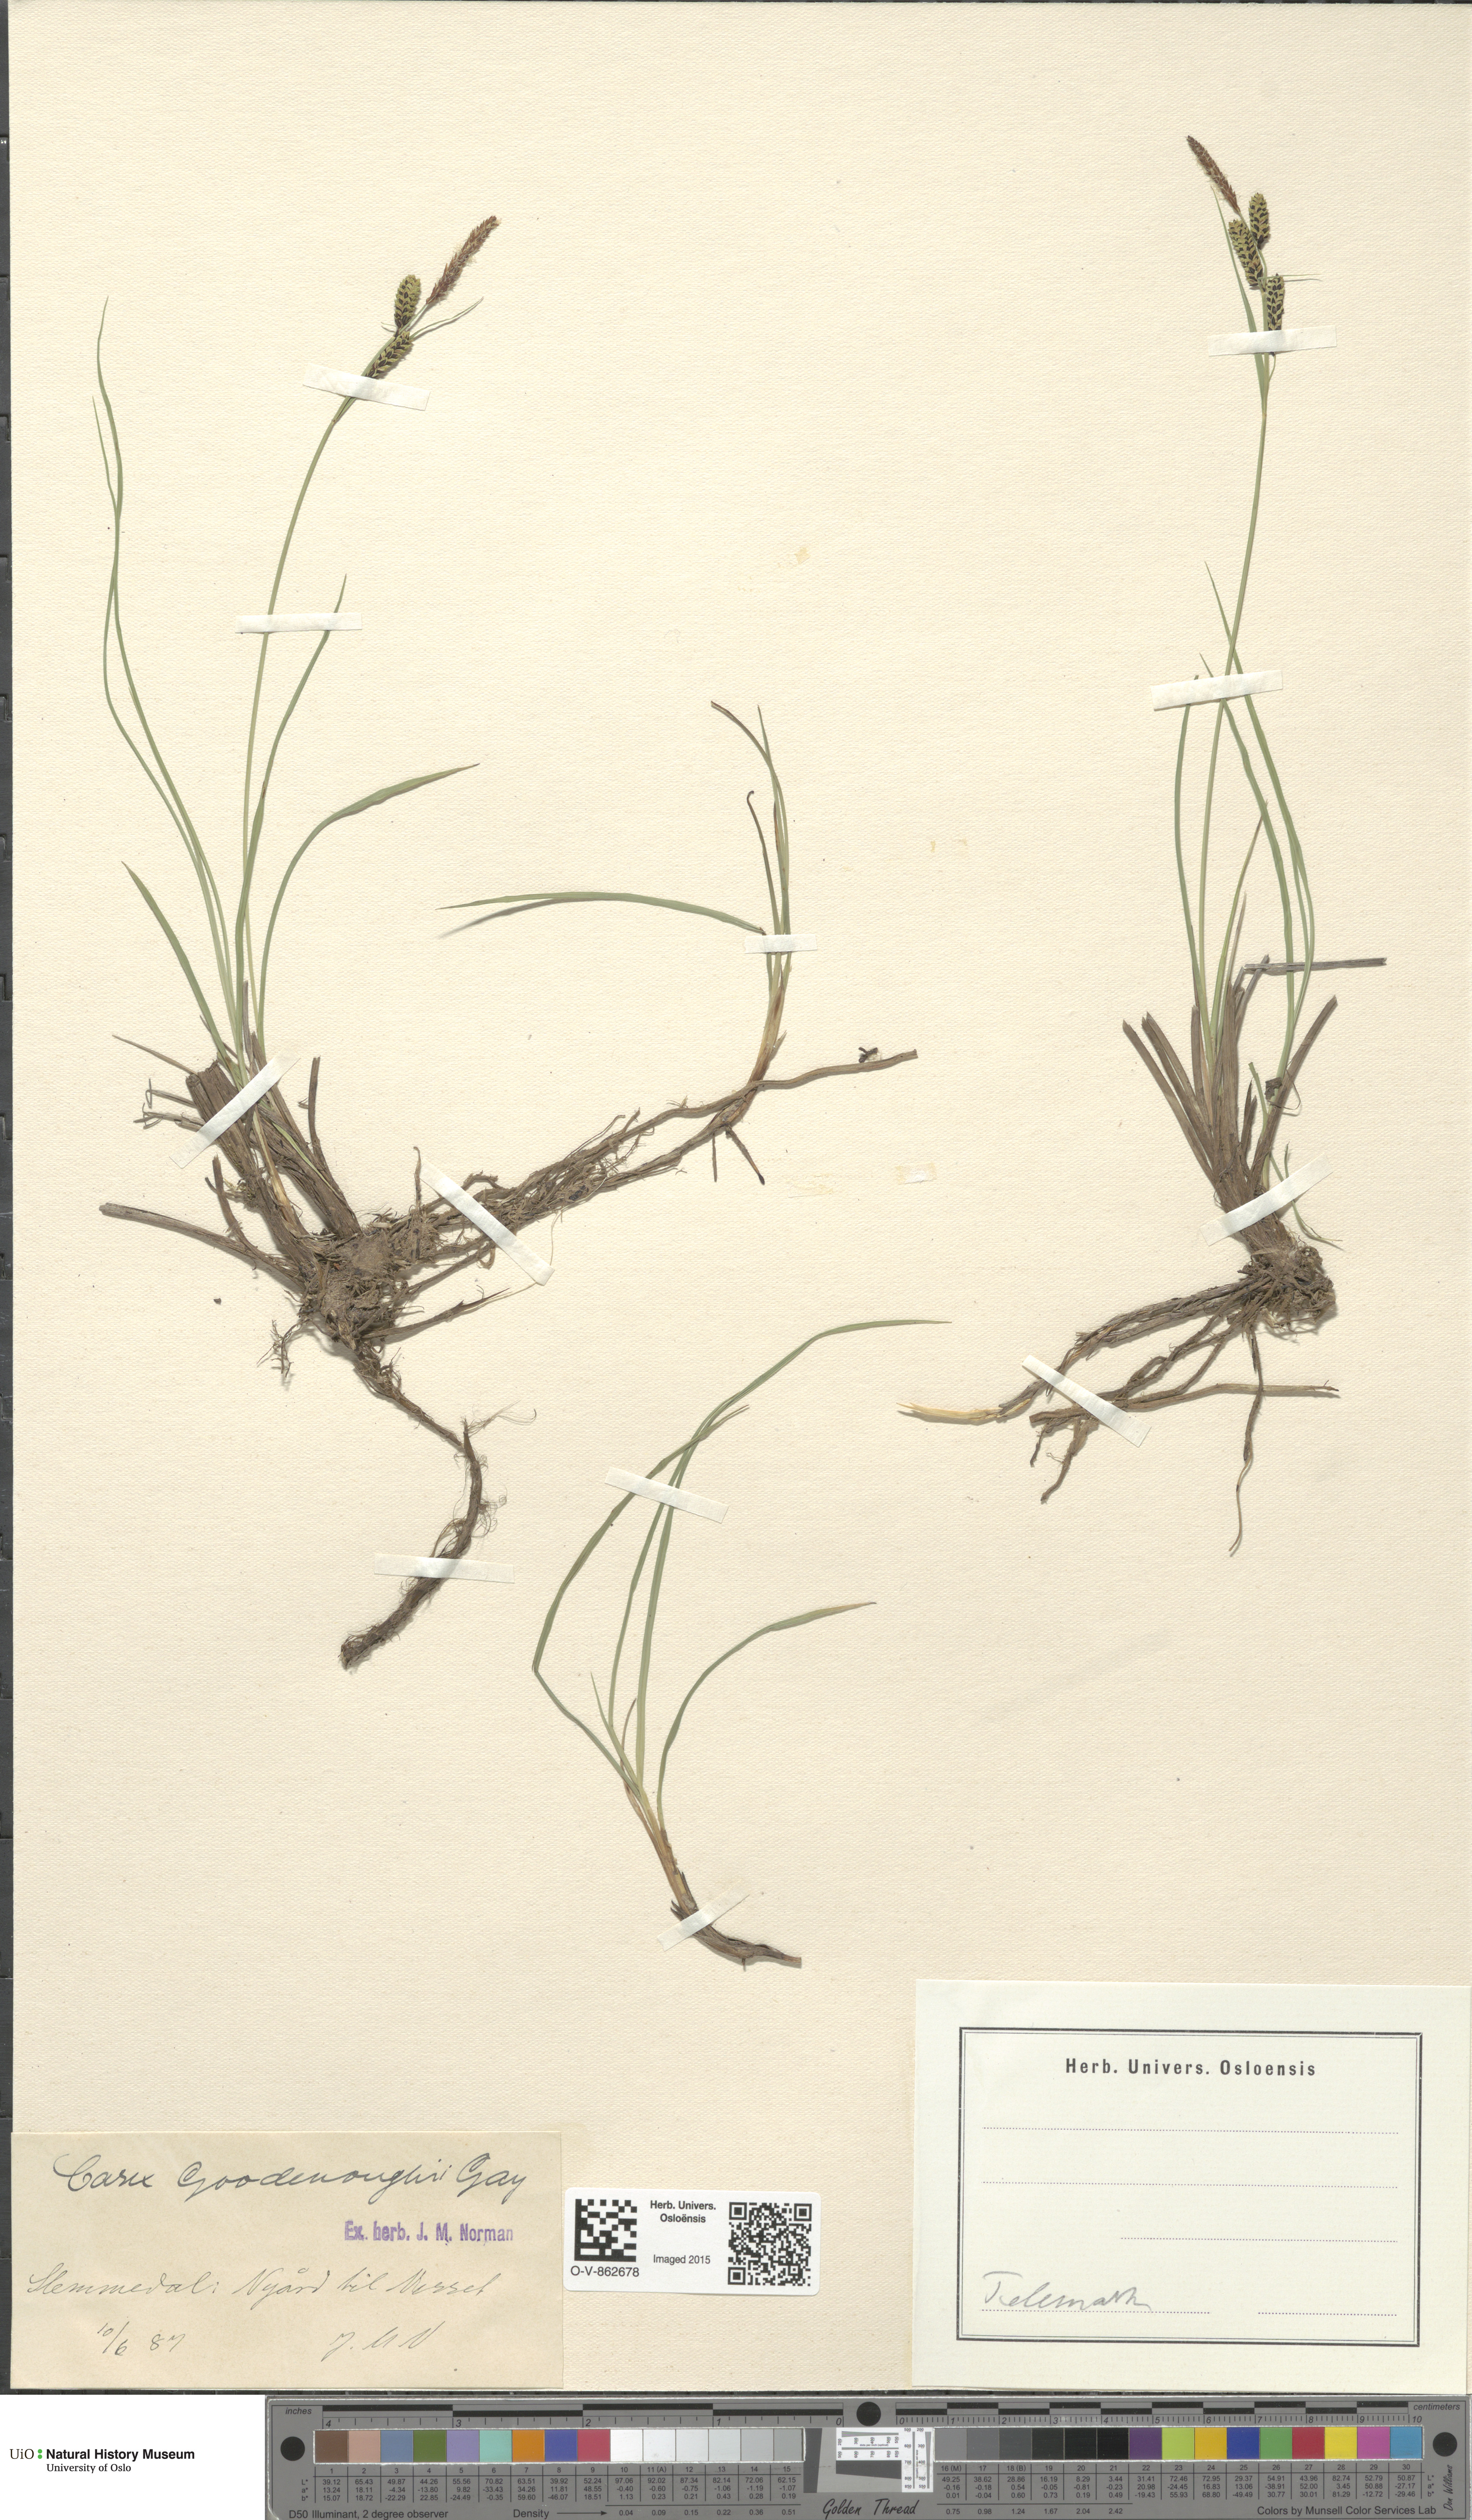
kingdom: Plantae
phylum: Tracheophyta
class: Liliopsida
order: Poales
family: Cyperaceae
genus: Carex
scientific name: Carex nigra
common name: Common sedge
